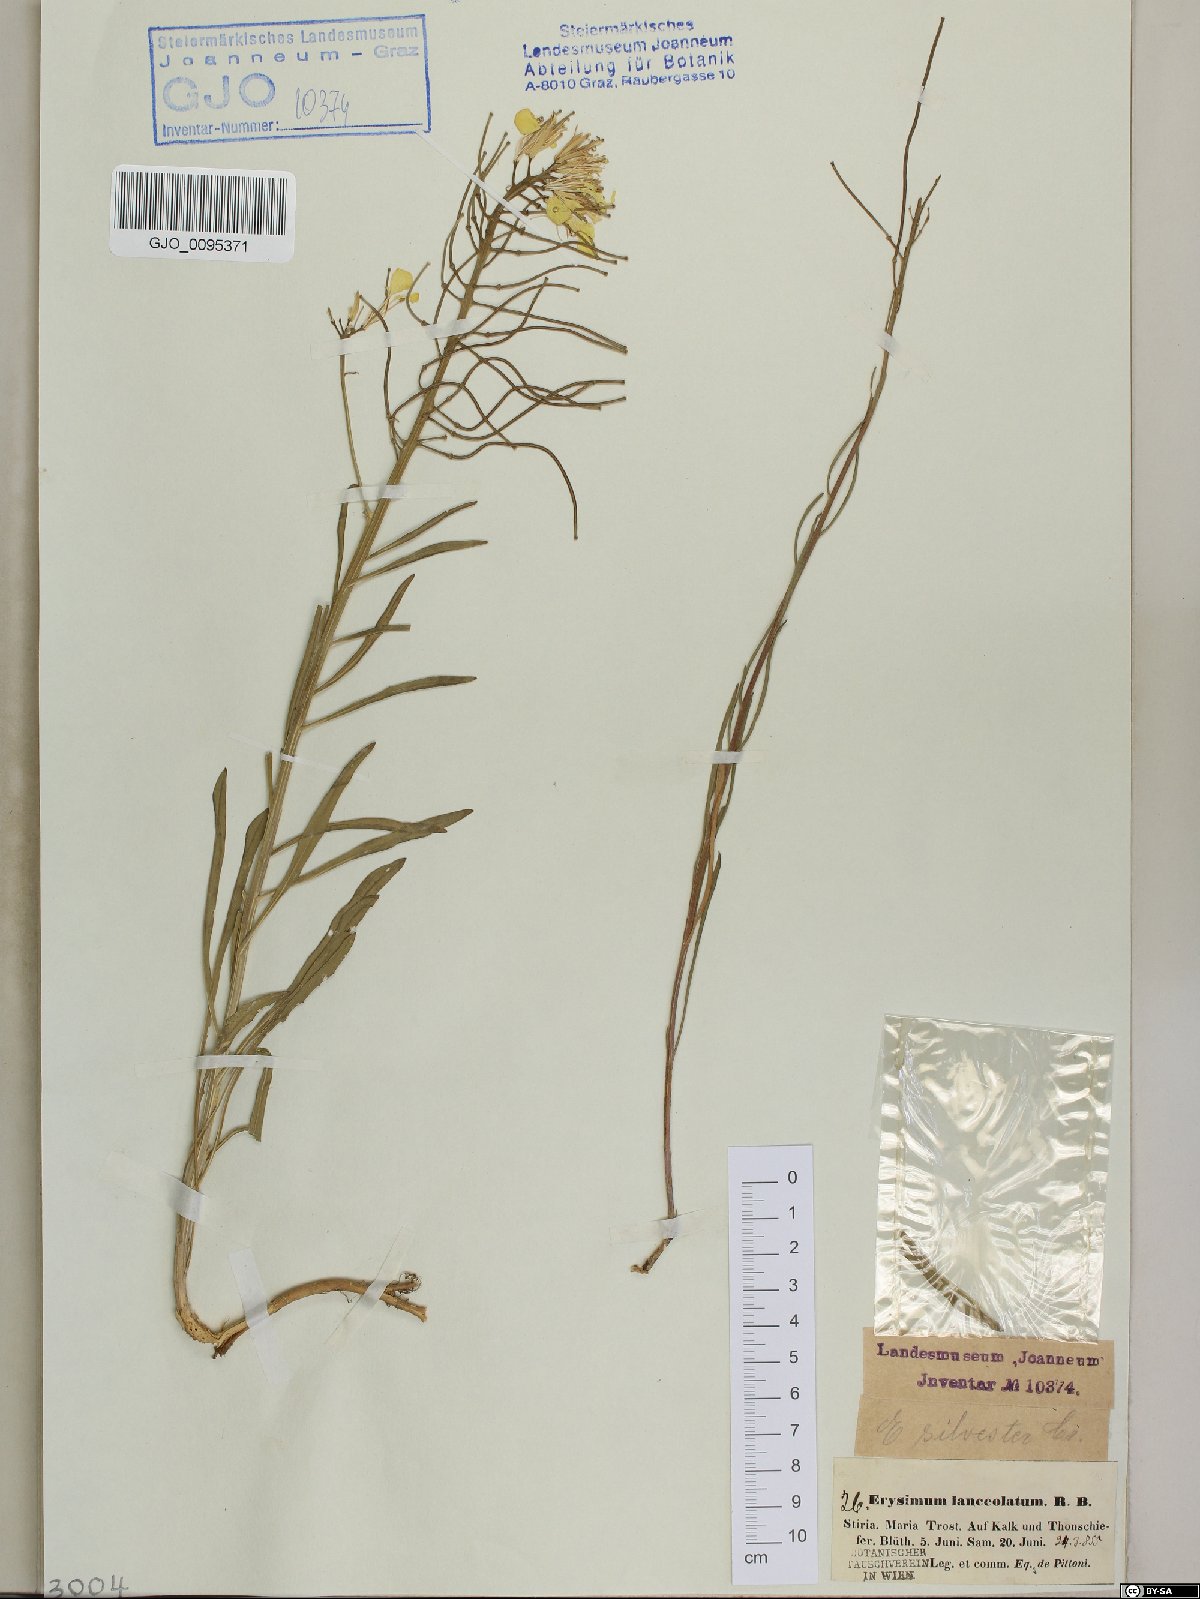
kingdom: Plantae
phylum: Tracheophyta
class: Magnoliopsida
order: Brassicales
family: Brassicaceae
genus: Erysimum
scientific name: Erysimum sylvestre
